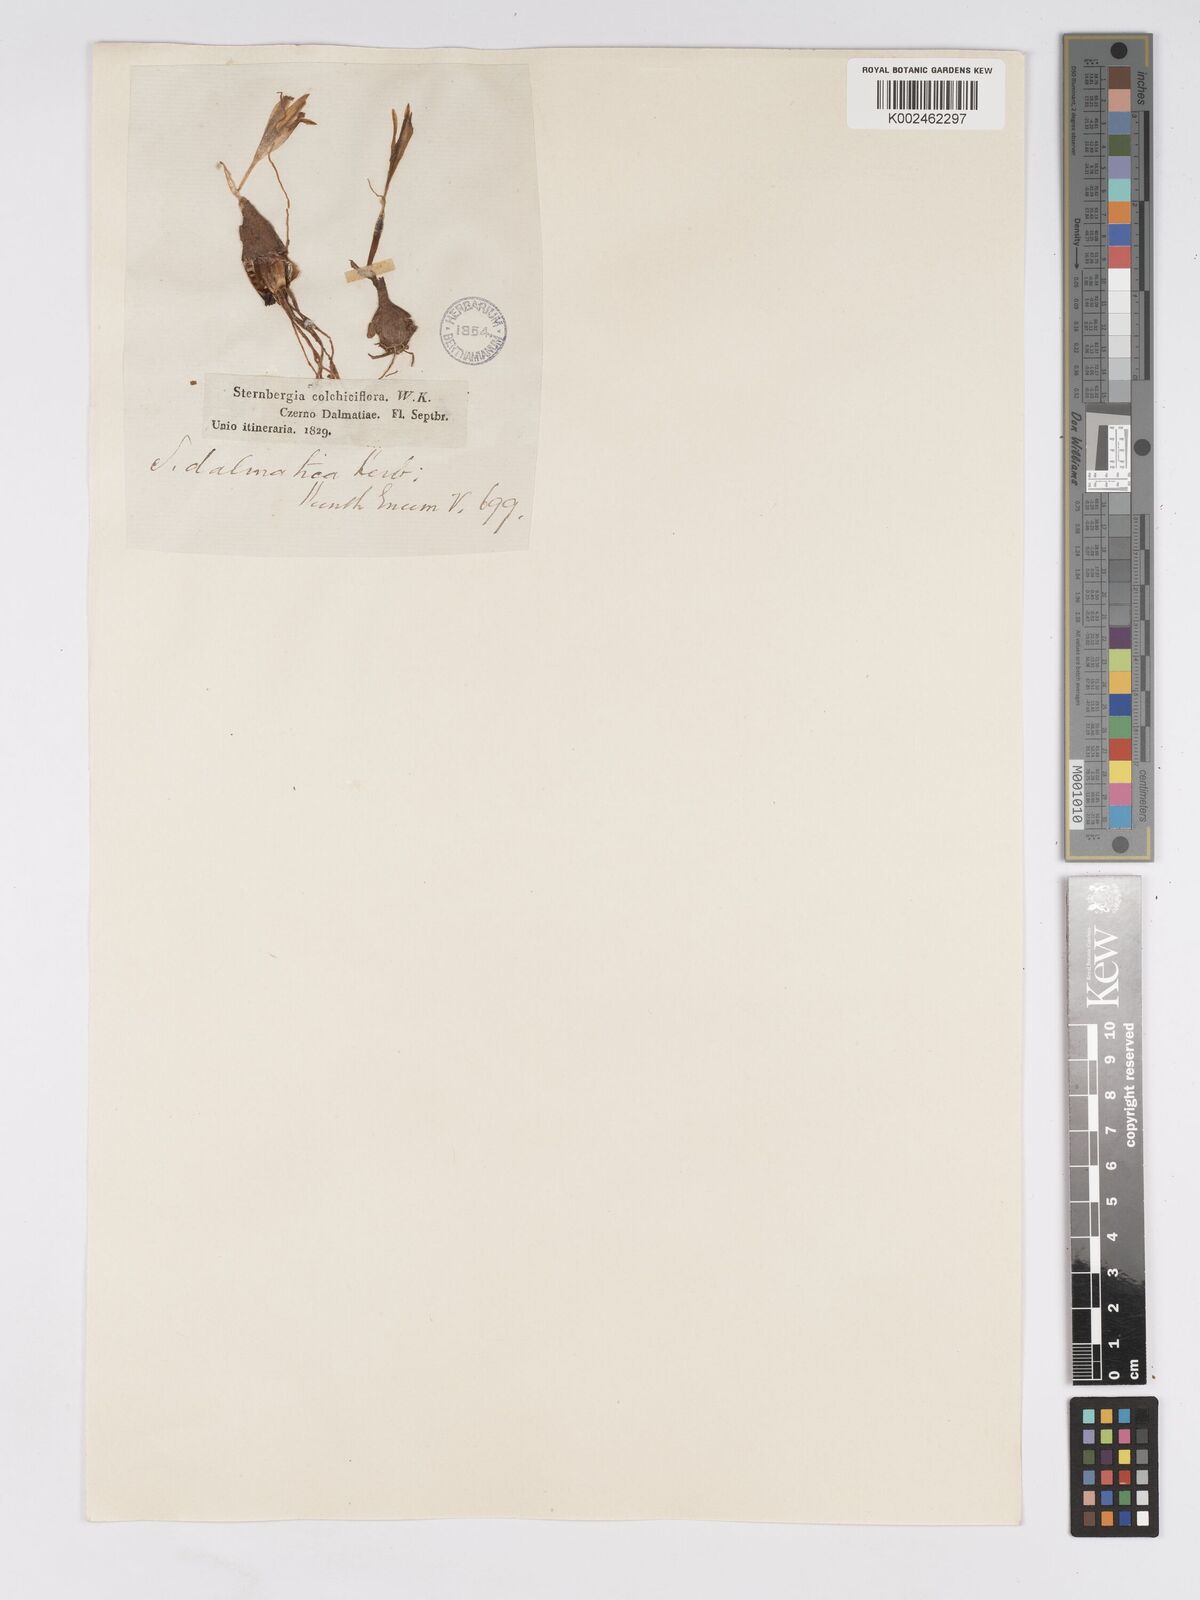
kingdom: Plantae
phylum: Tracheophyta
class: Liliopsida
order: Asparagales
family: Amaryllidaceae
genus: Sternbergia
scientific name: Sternbergia colchiciflora
